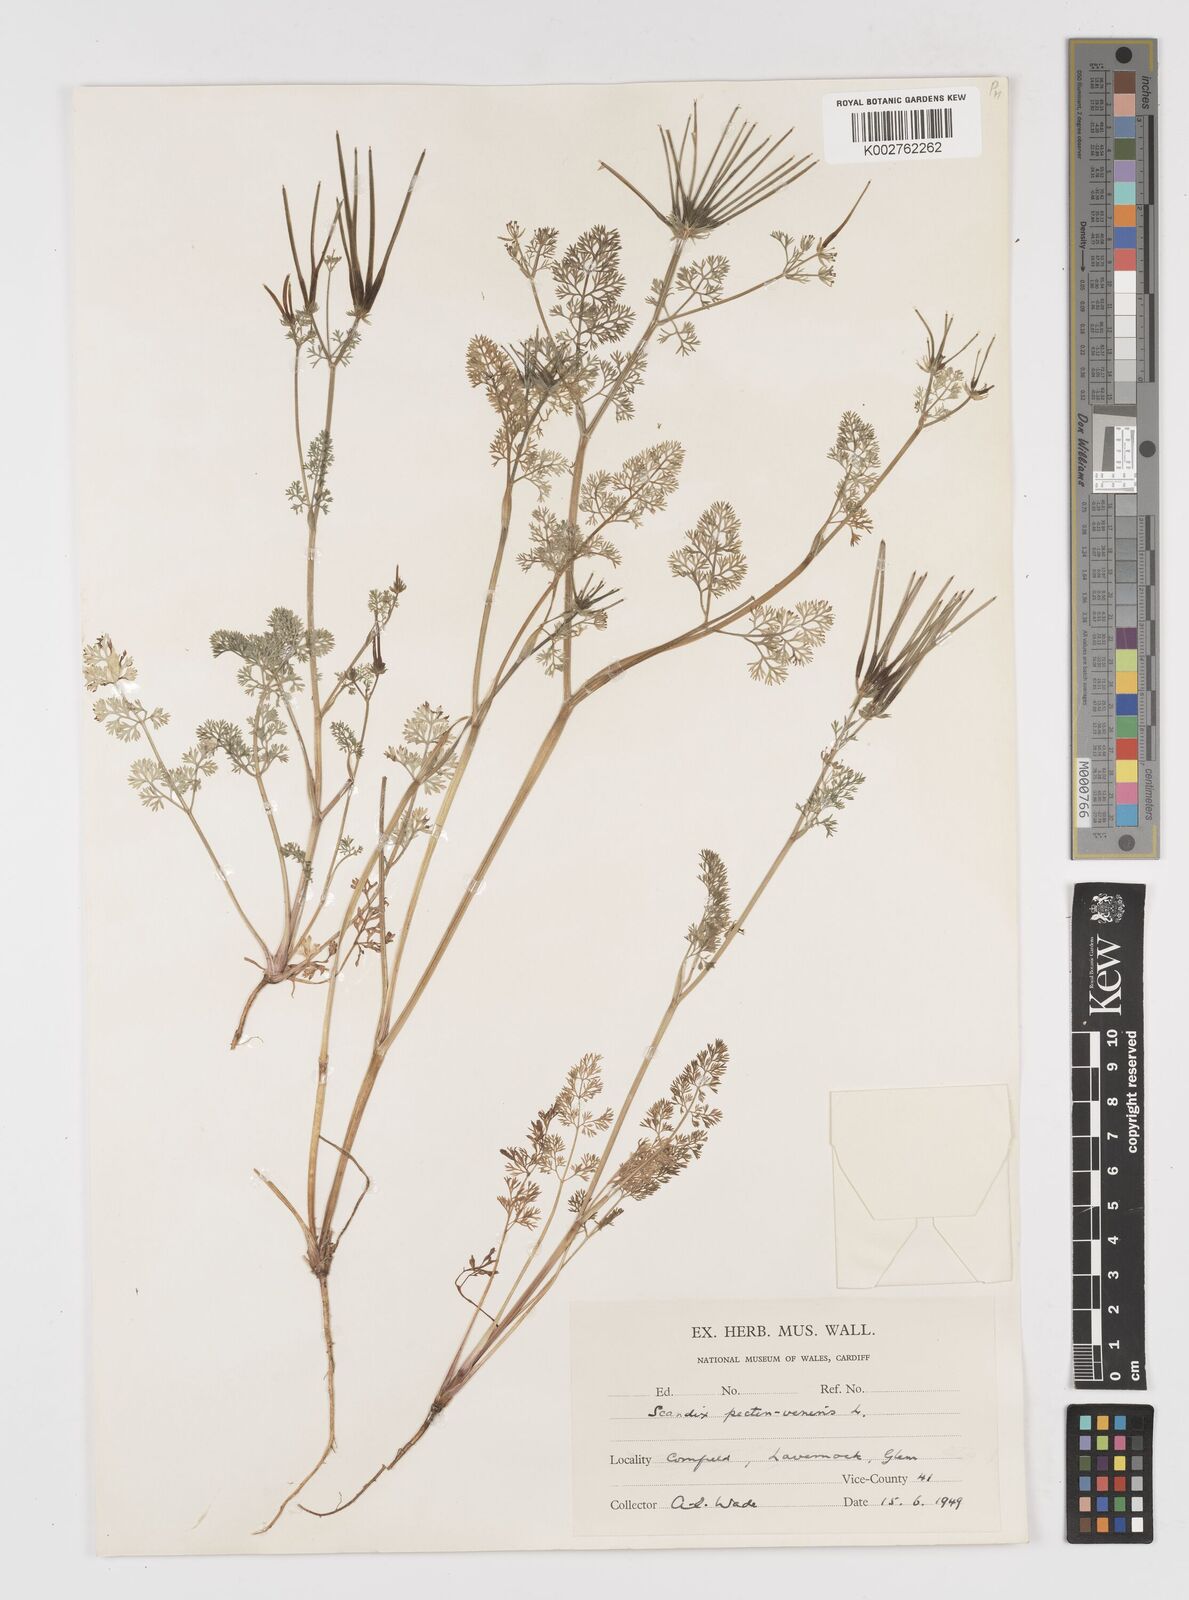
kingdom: Plantae
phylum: Tracheophyta
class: Magnoliopsida
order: Apiales
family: Apiaceae
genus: Scandix
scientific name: Scandix pecten-veneris
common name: Shepherd's-needle
